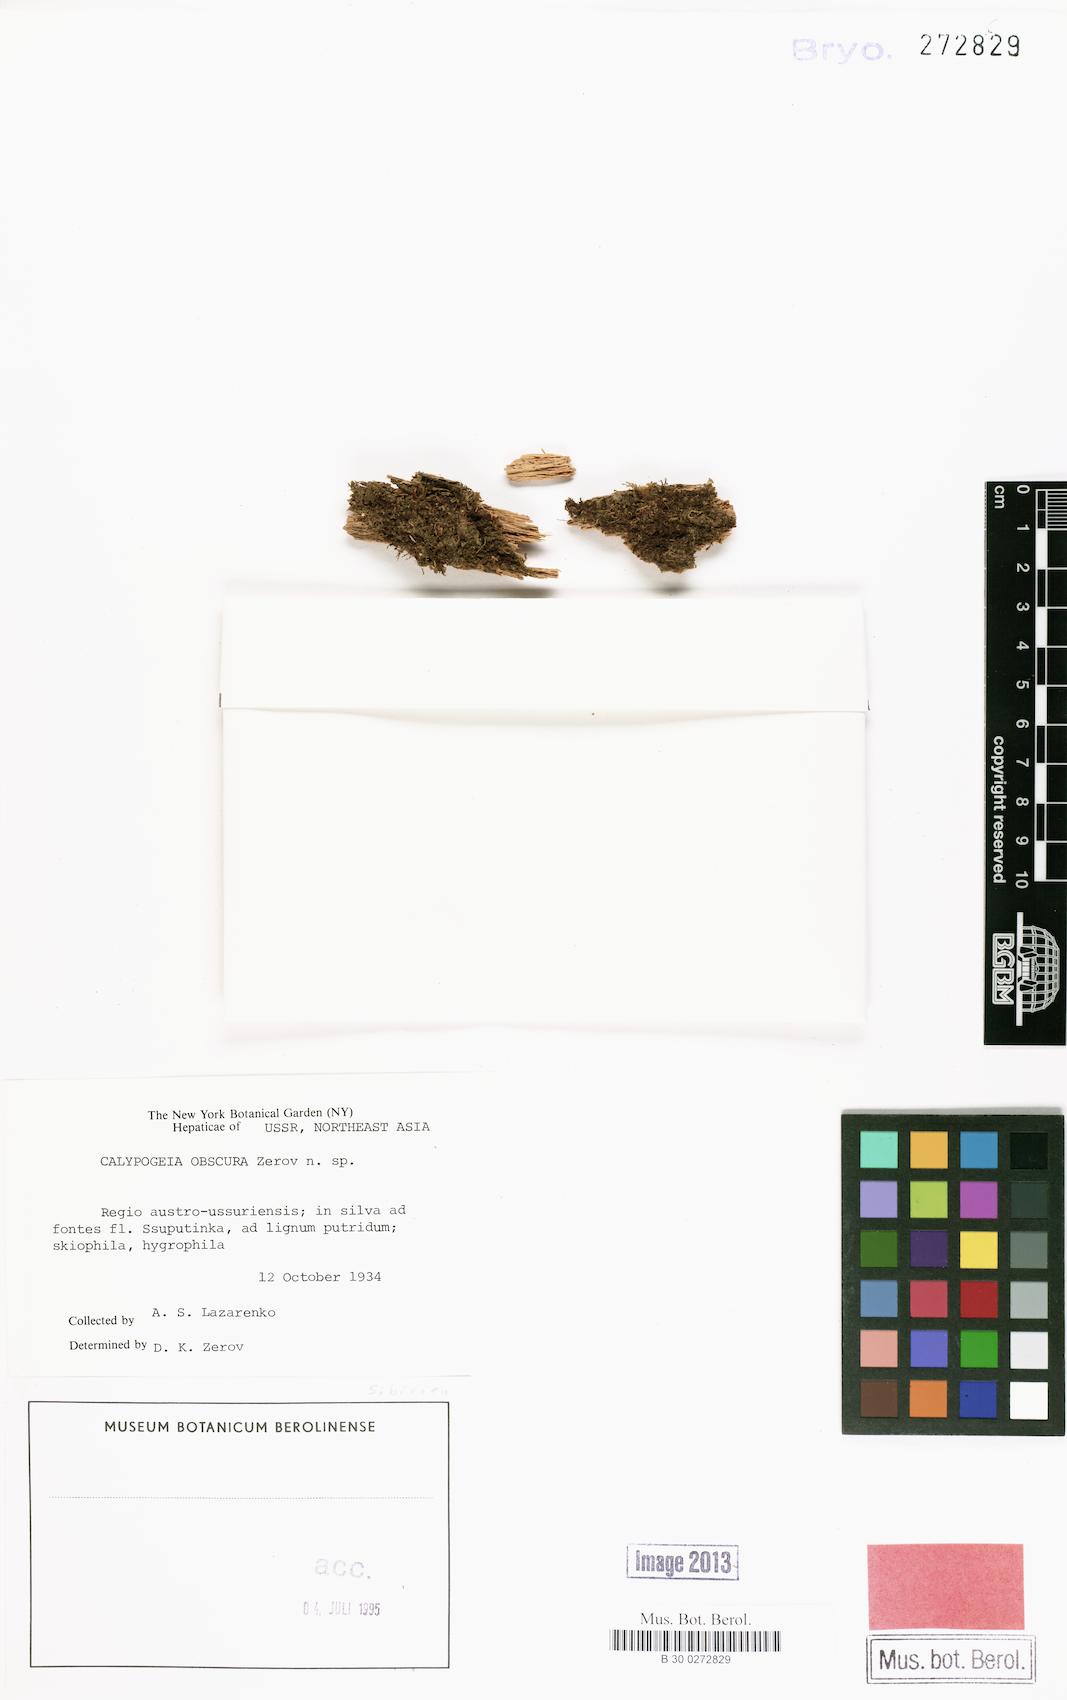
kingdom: Plantae
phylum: Marchantiophyta
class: Jungermanniopsida
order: Jungermanniales
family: Calypogeiaceae
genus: Calypogeia
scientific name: Calypogeia
